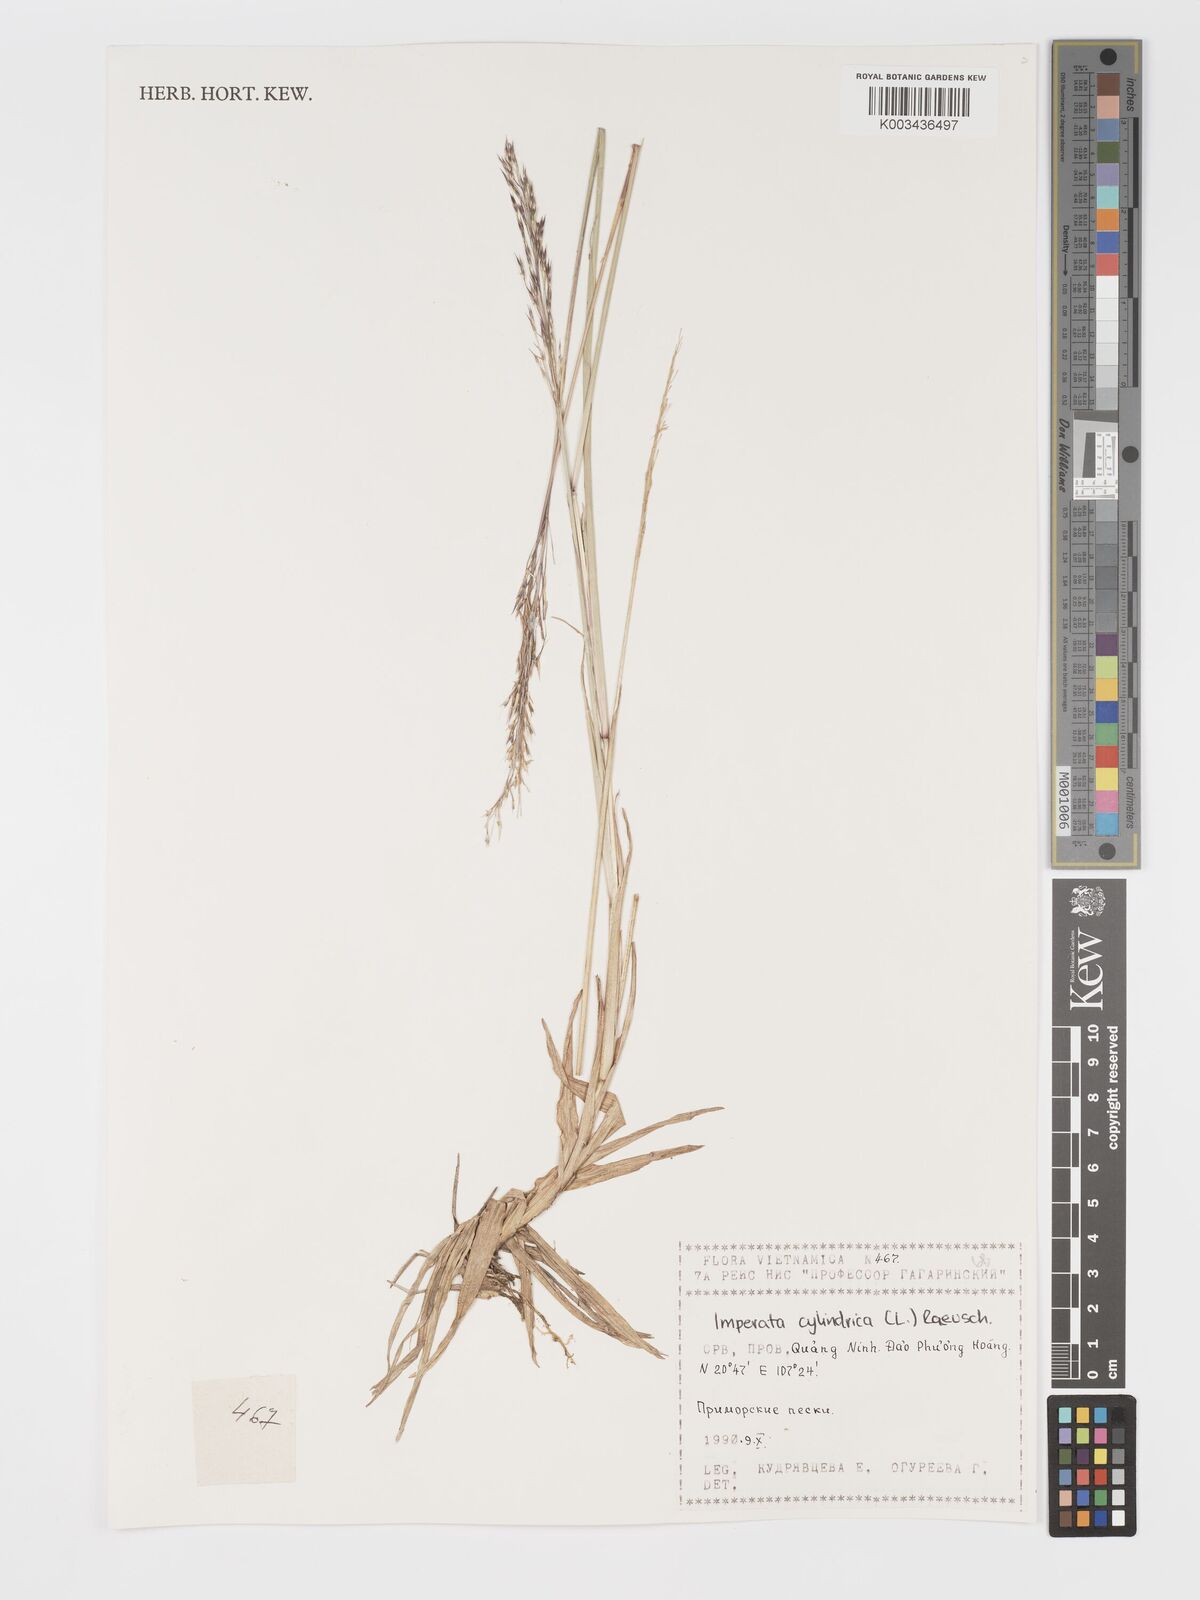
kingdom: Plantae
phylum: Tracheophyta
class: Liliopsida
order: Poales
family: Poaceae
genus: Chrysopogon
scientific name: Chrysopogon aciculatus
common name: Pilipiliula
